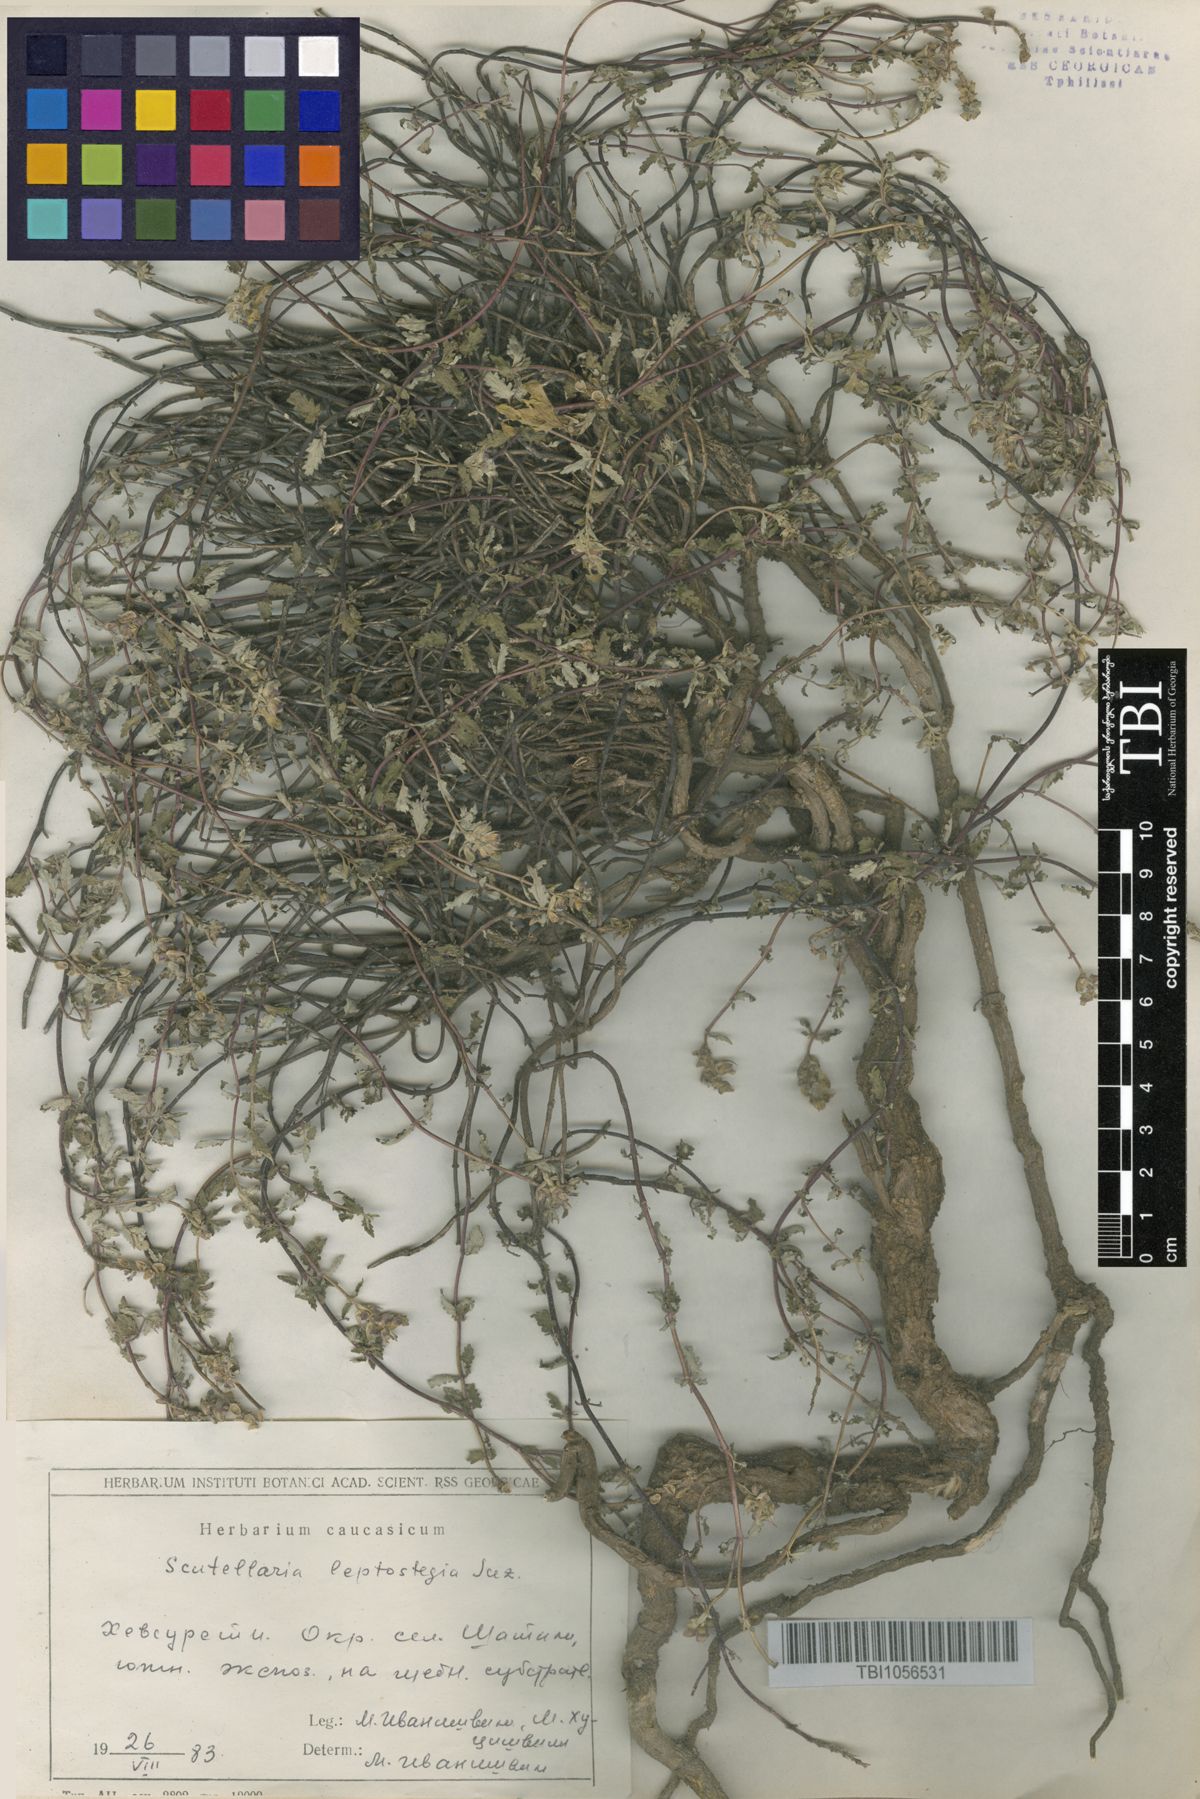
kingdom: Plantae
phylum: Tracheophyta
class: Magnoliopsida
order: Lamiales
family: Lamiaceae
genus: Scutellaria
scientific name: Scutellaria leptostegia
